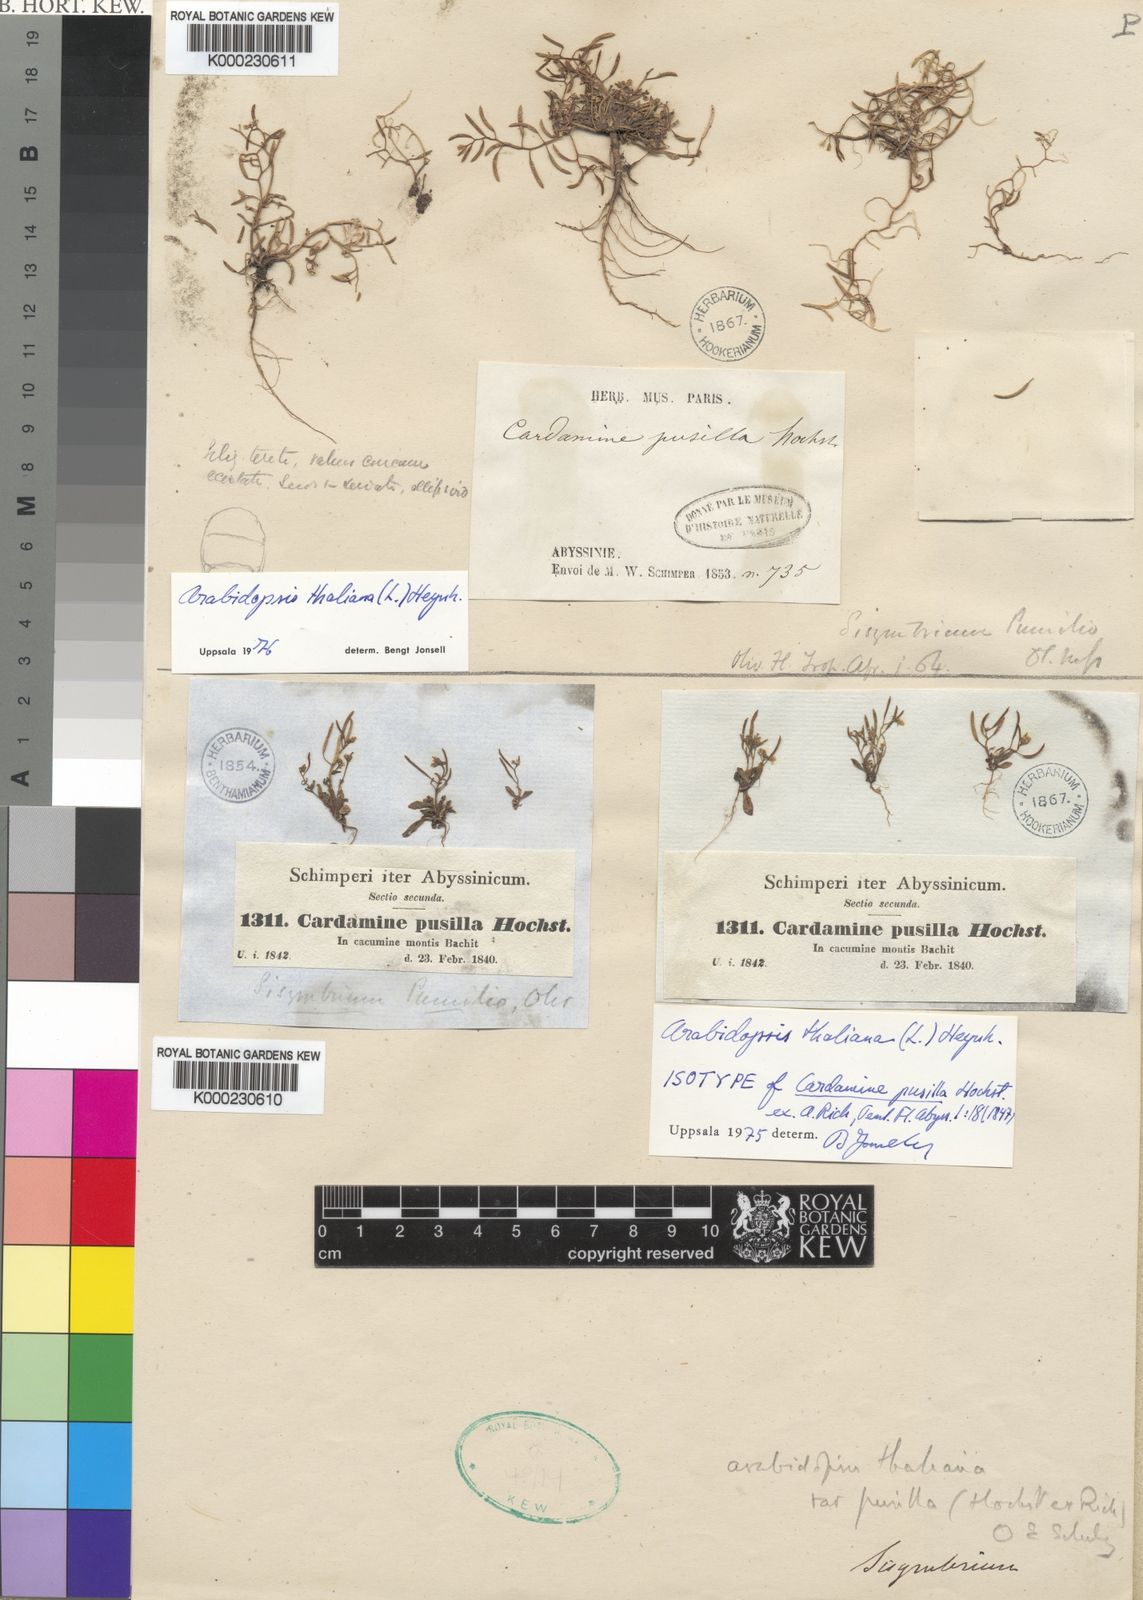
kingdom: Plantae
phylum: Tracheophyta
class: Magnoliopsida
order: Brassicales
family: Brassicaceae
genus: Arabidopsis
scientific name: Arabidopsis thaliana
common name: Thale cress
